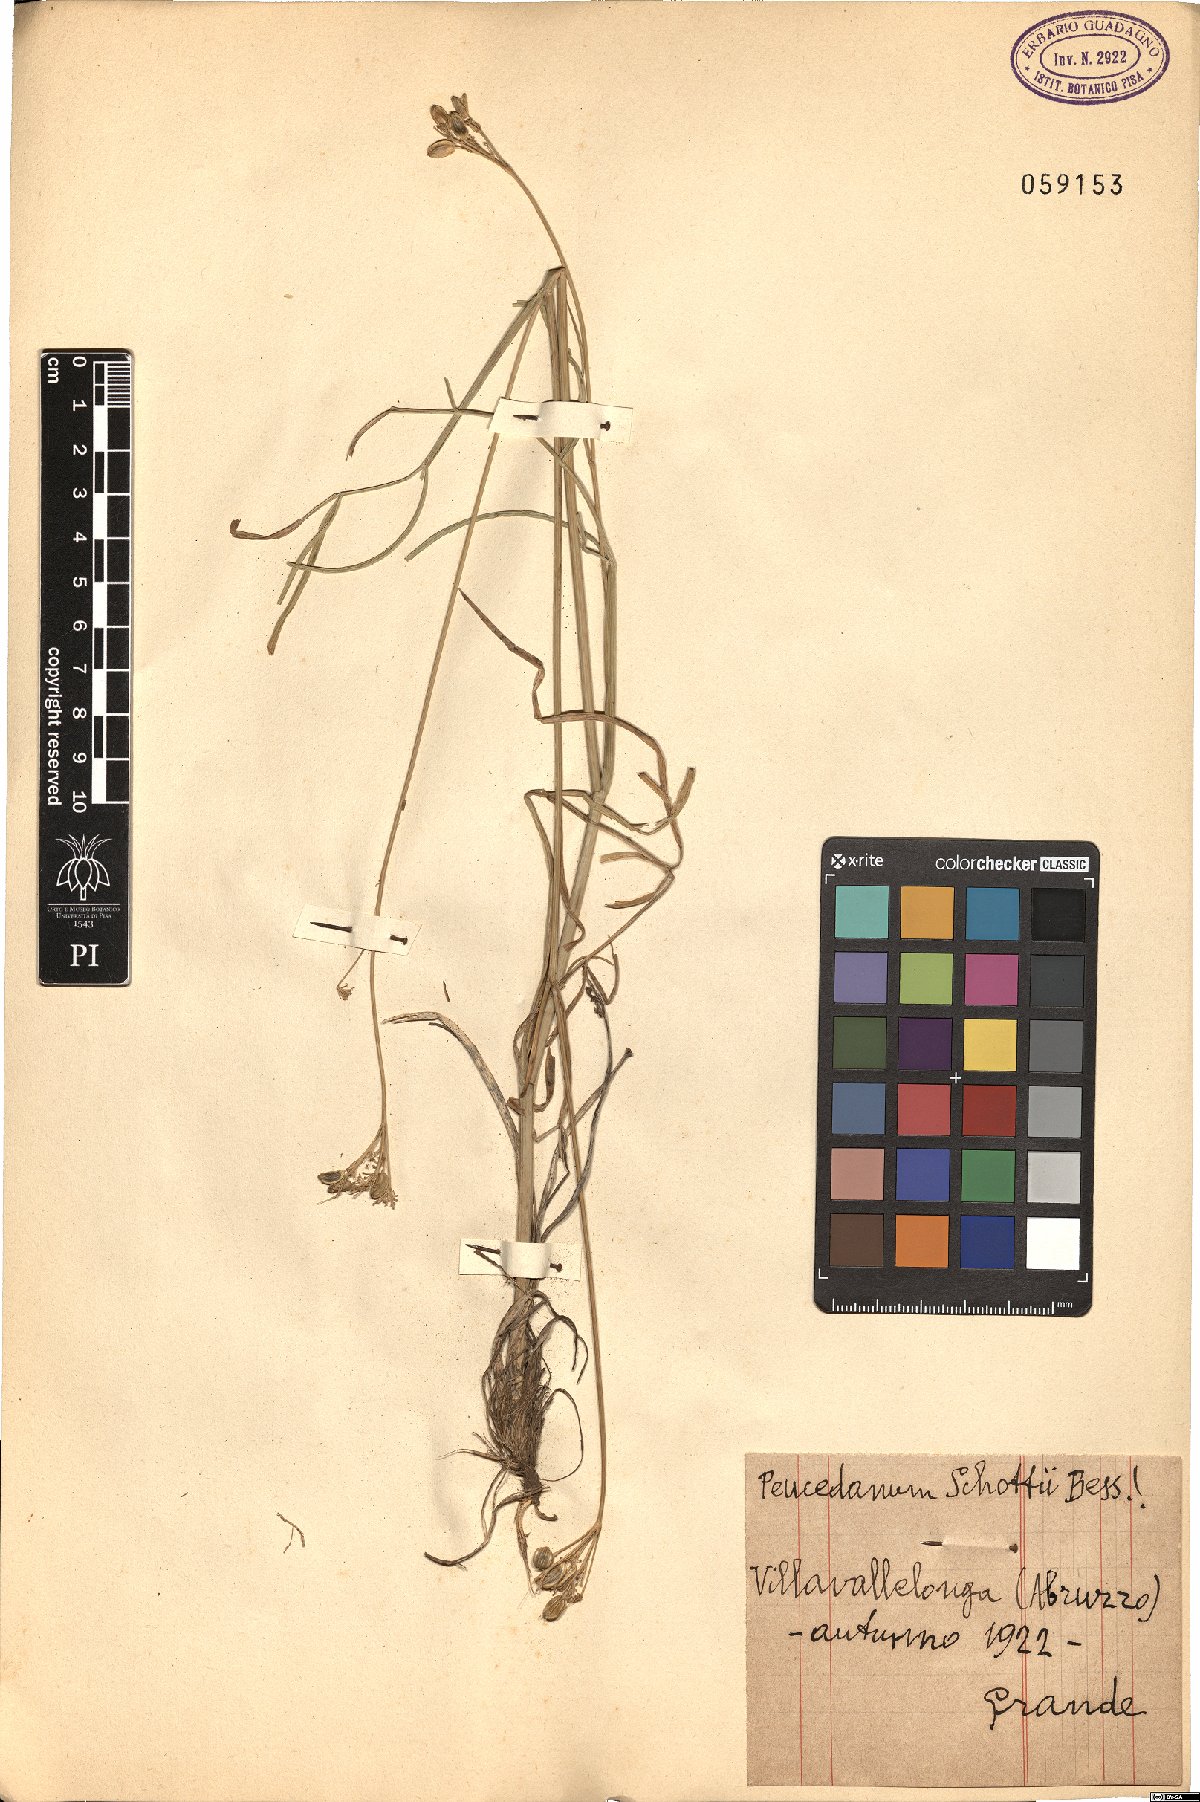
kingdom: Plantae
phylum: Tracheophyta
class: Magnoliopsida
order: Apiales
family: Apiaceae
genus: Dichoropetalum
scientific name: Dichoropetalum schottii
